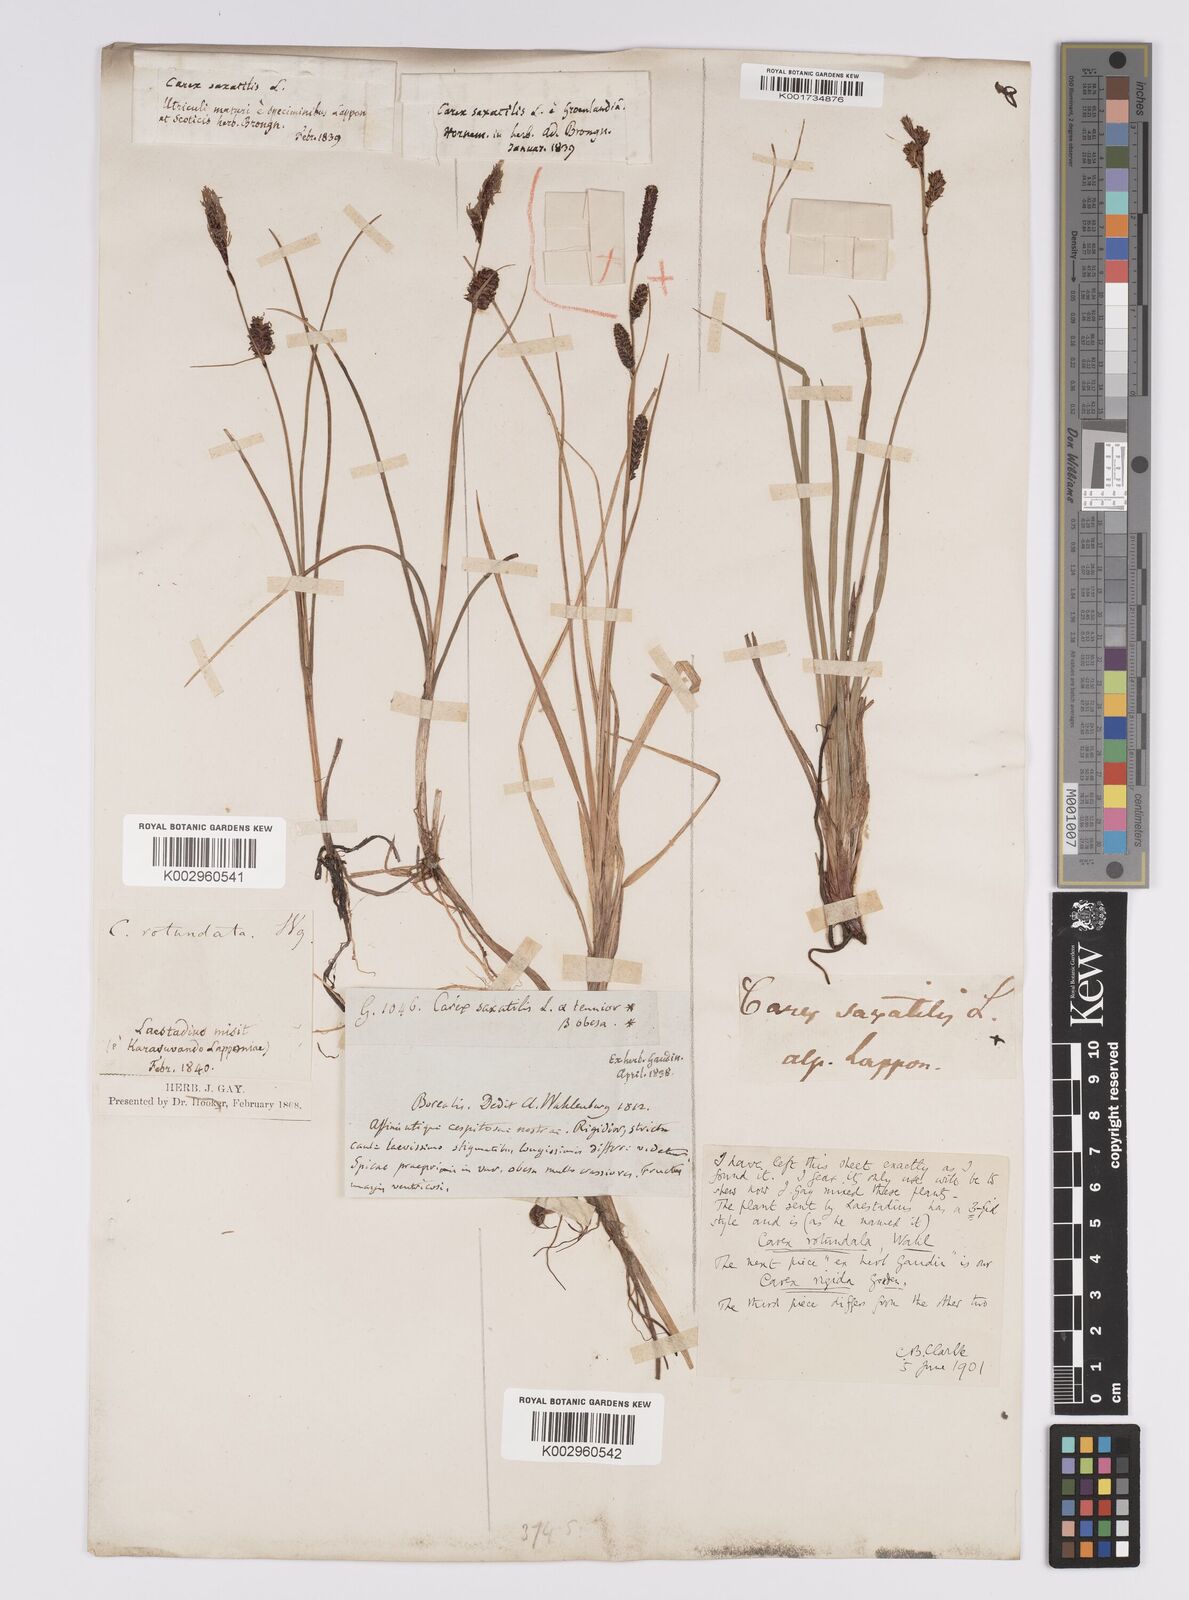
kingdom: Plantae
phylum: Tracheophyta
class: Liliopsida
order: Poales
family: Cyperaceae
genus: Carex
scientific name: Carex saxatilis
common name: Russet sedge
